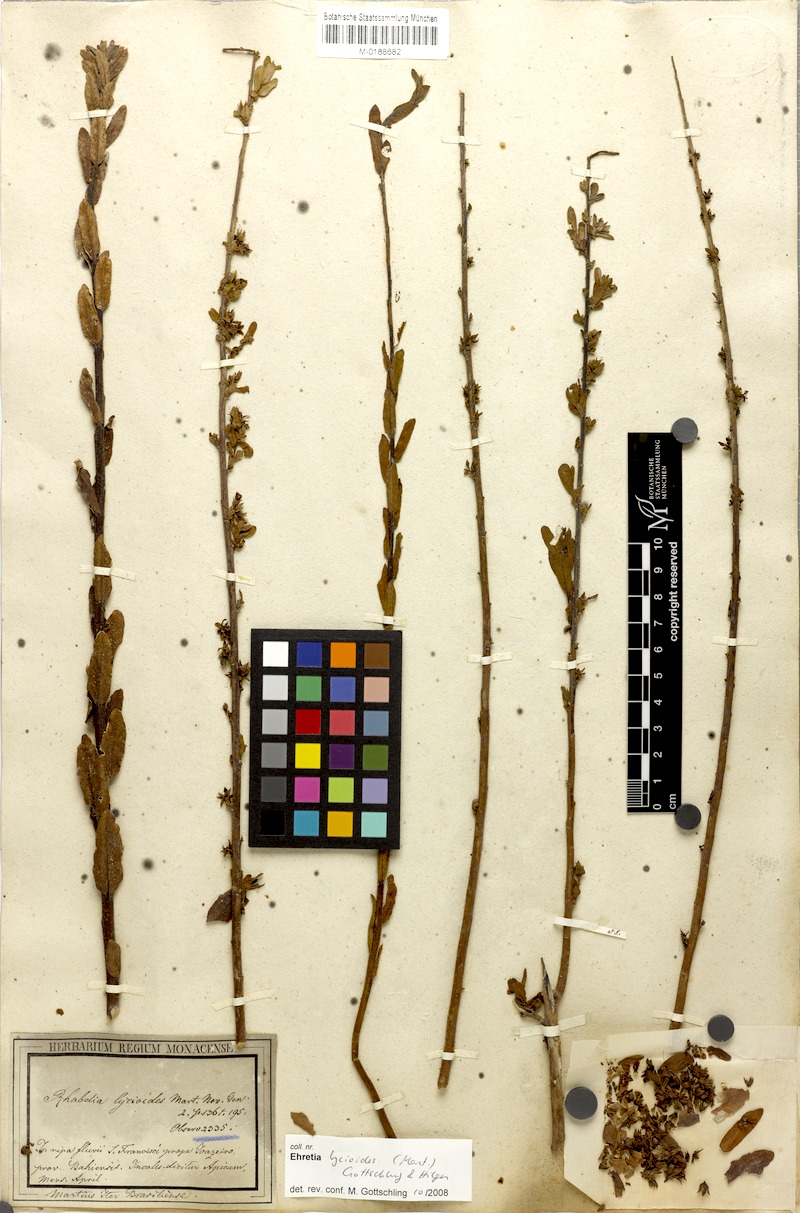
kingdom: Plantae
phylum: Tracheophyta
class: Magnoliopsida
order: Boraginales
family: Ehretiaceae
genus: Ehretia
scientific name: Ehretia lycioides
